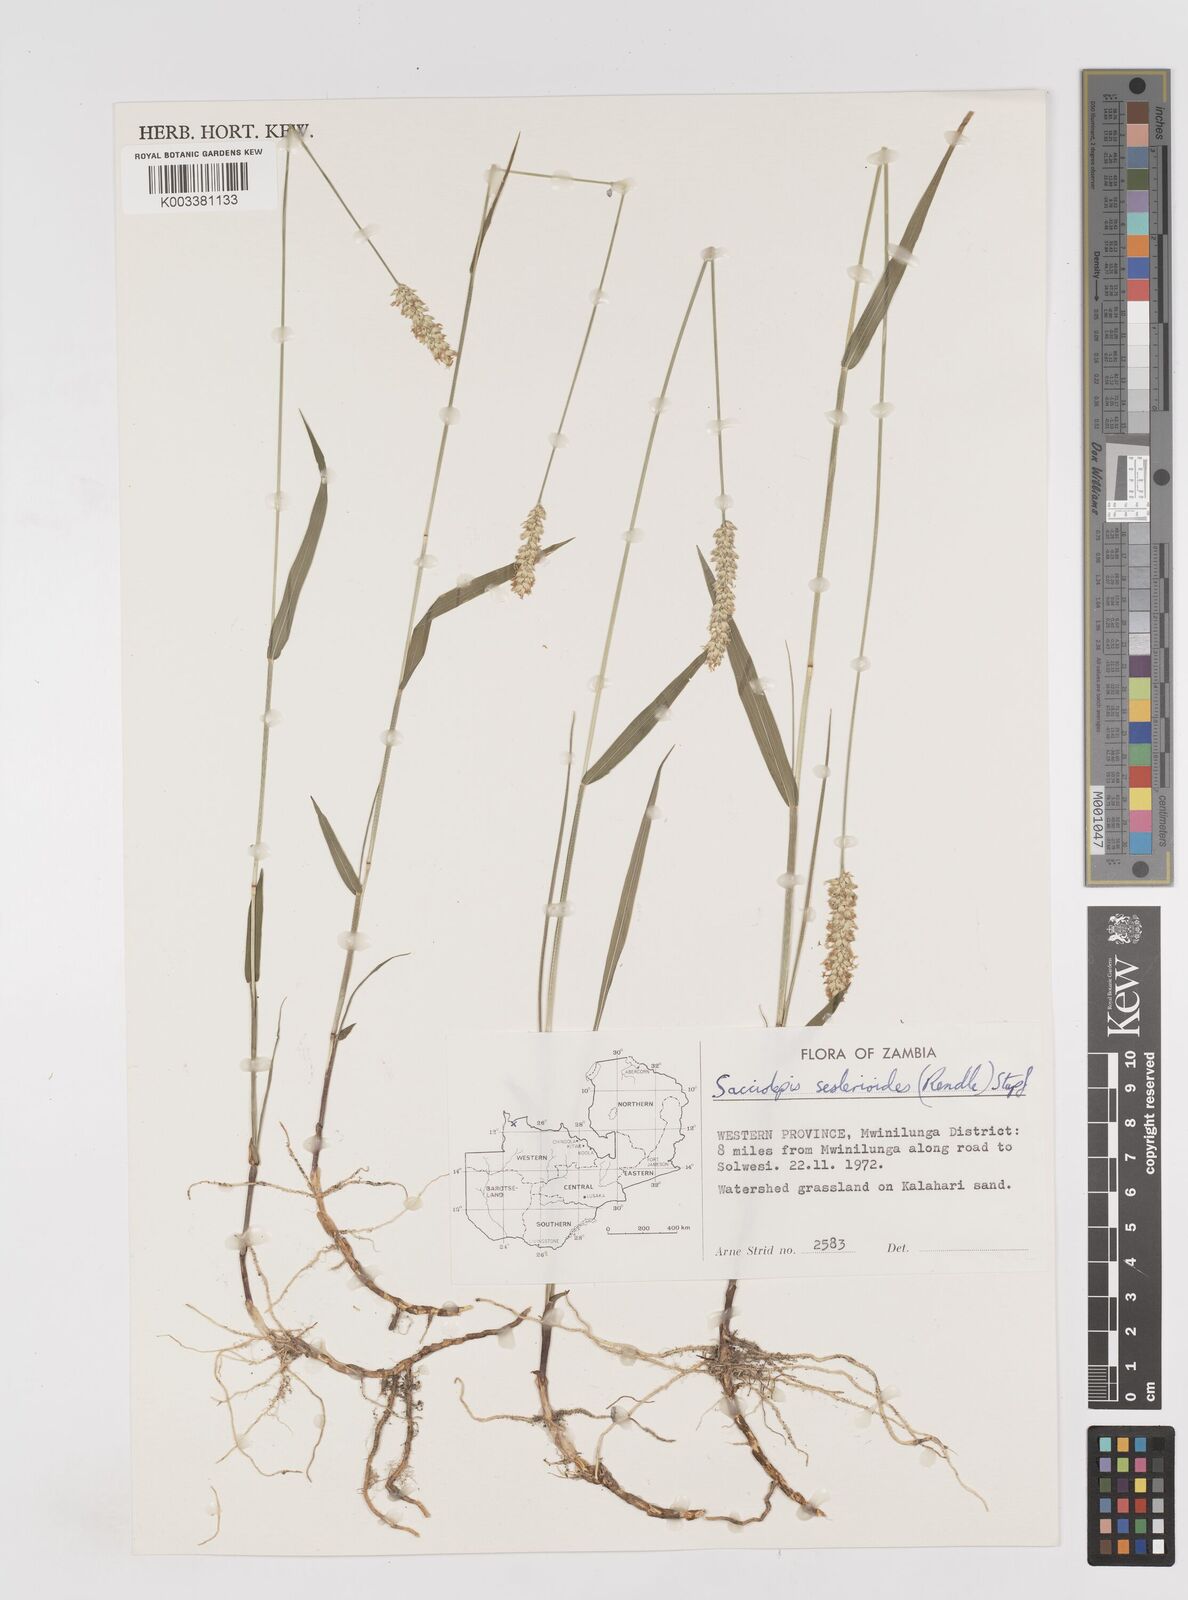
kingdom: Plantae
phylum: Tracheophyta
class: Liliopsida
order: Poales
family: Poaceae
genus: Sacciolepis
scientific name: Sacciolepis seslerioides
